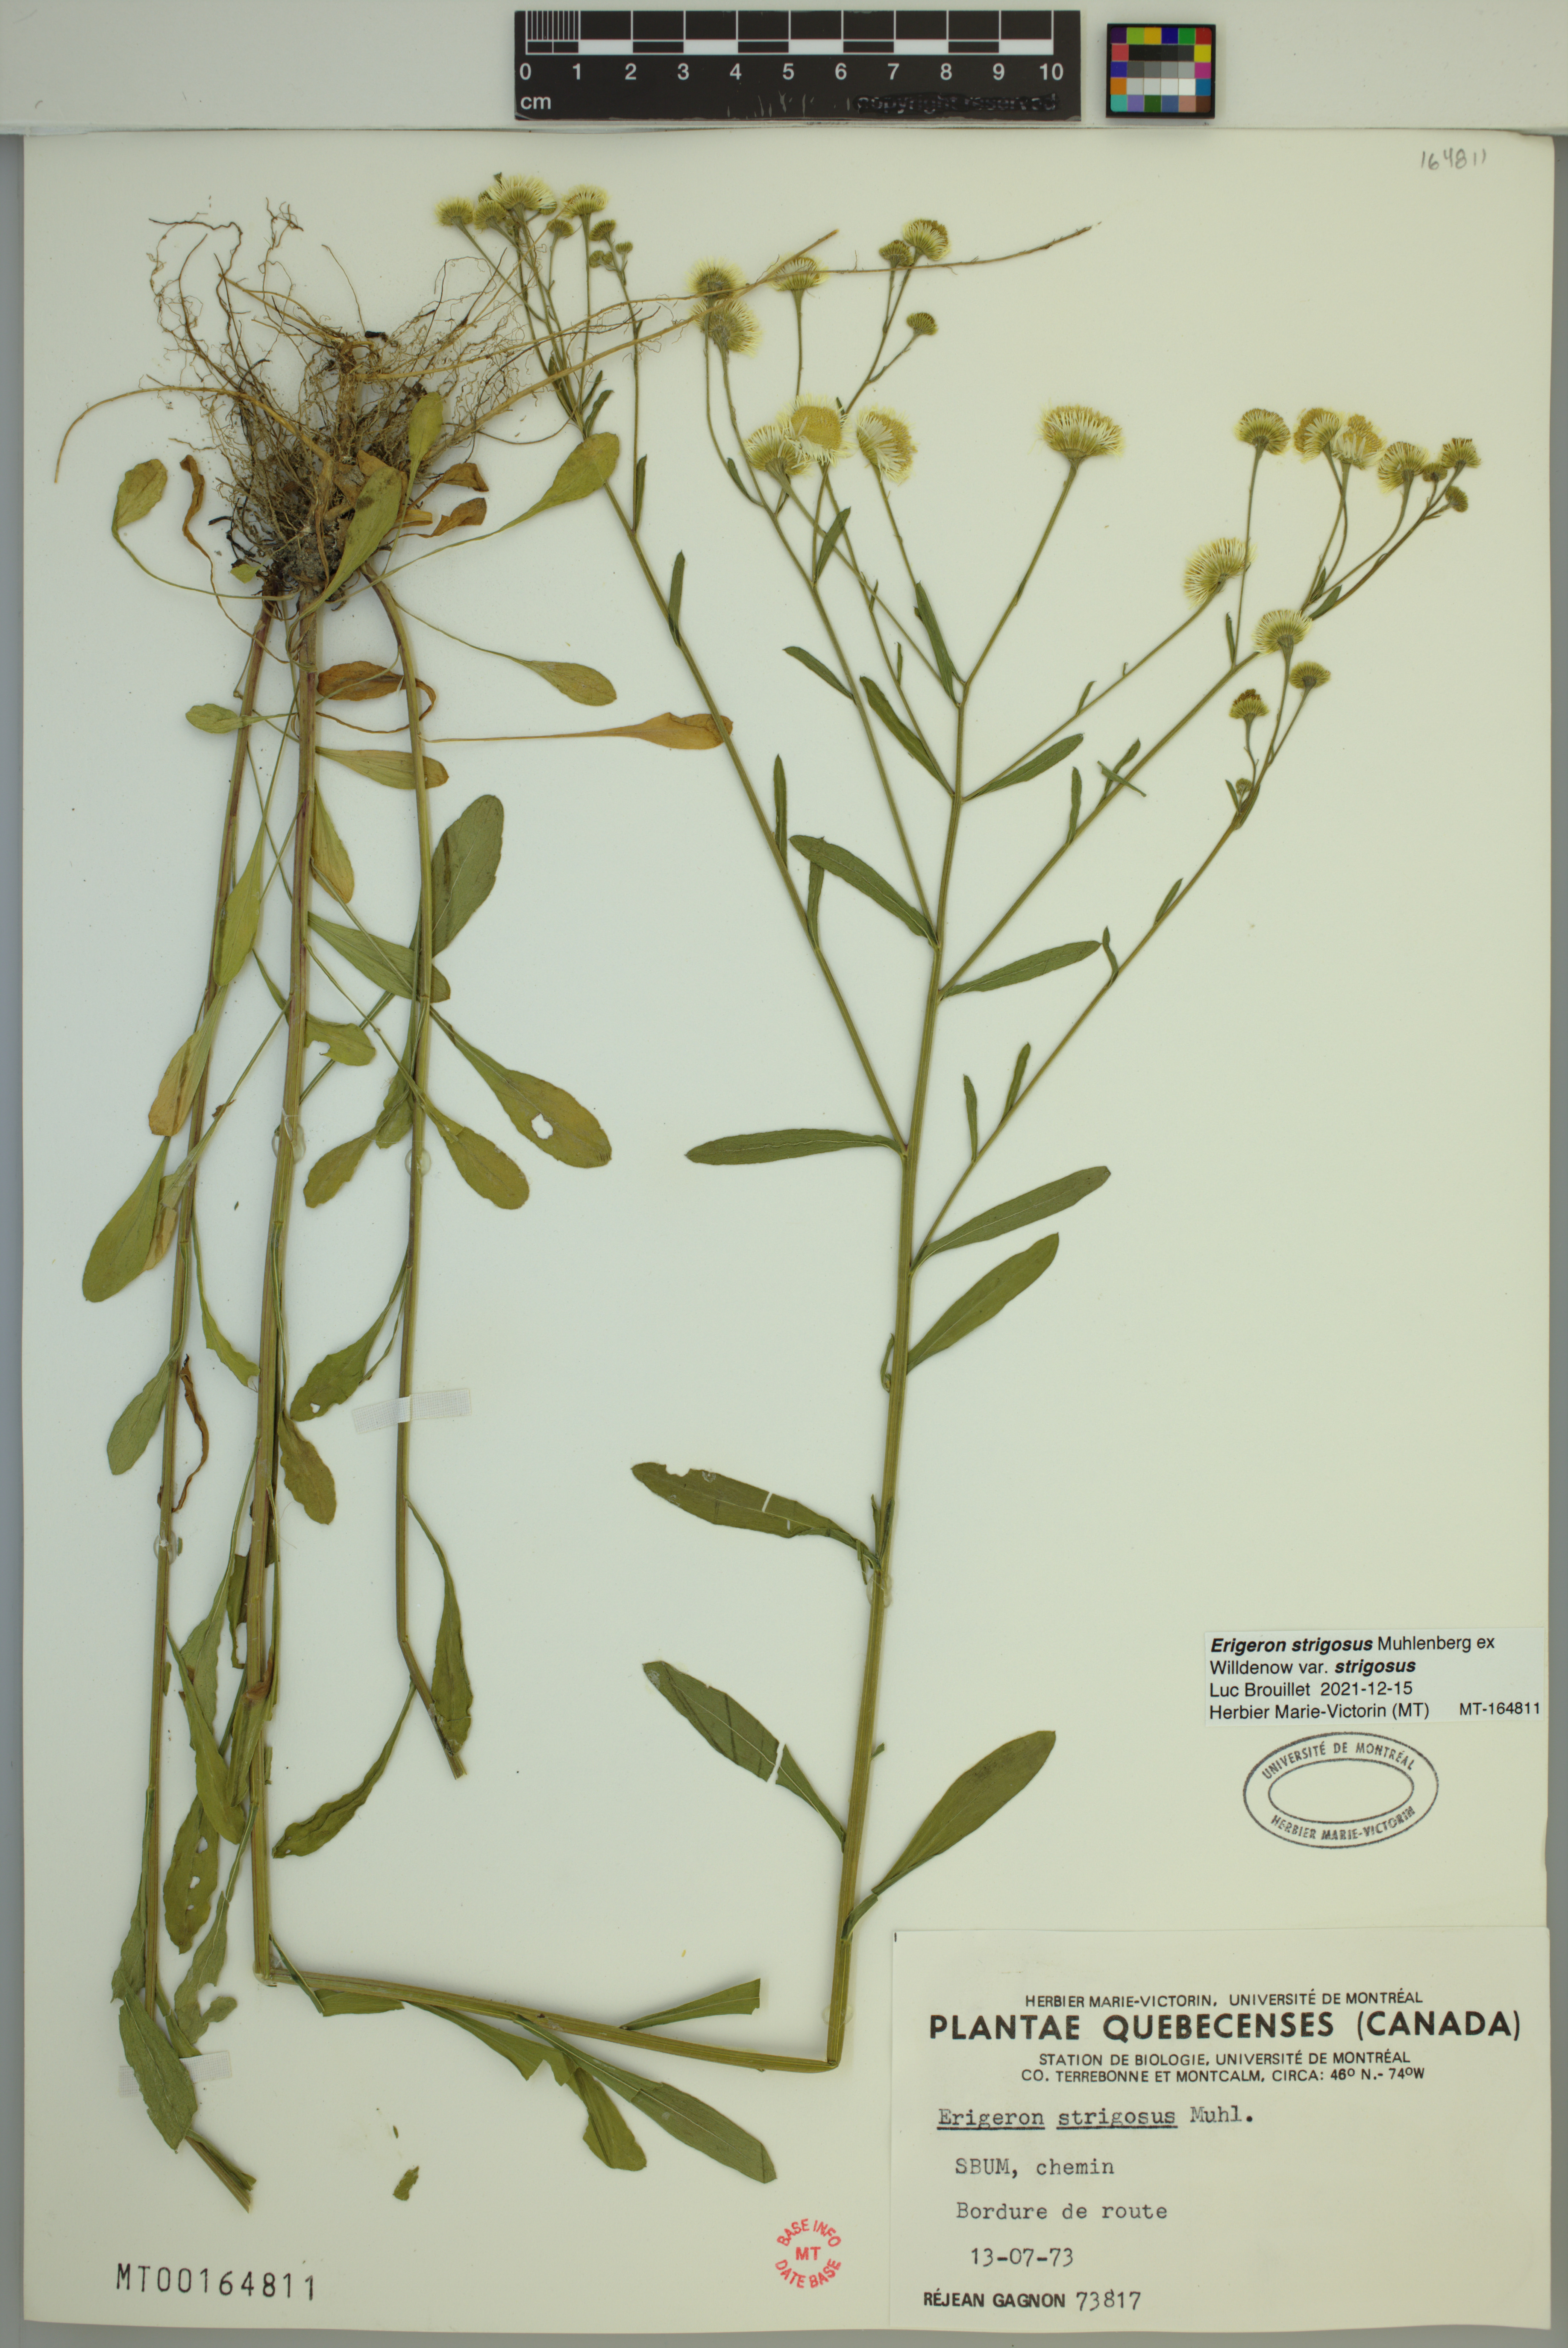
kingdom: Plantae
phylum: Tracheophyta
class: Magnoliopsida
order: Asterales
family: Asteraceae
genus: Erigeron
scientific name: Erigeron strigosus
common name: Common eastern fleabane
